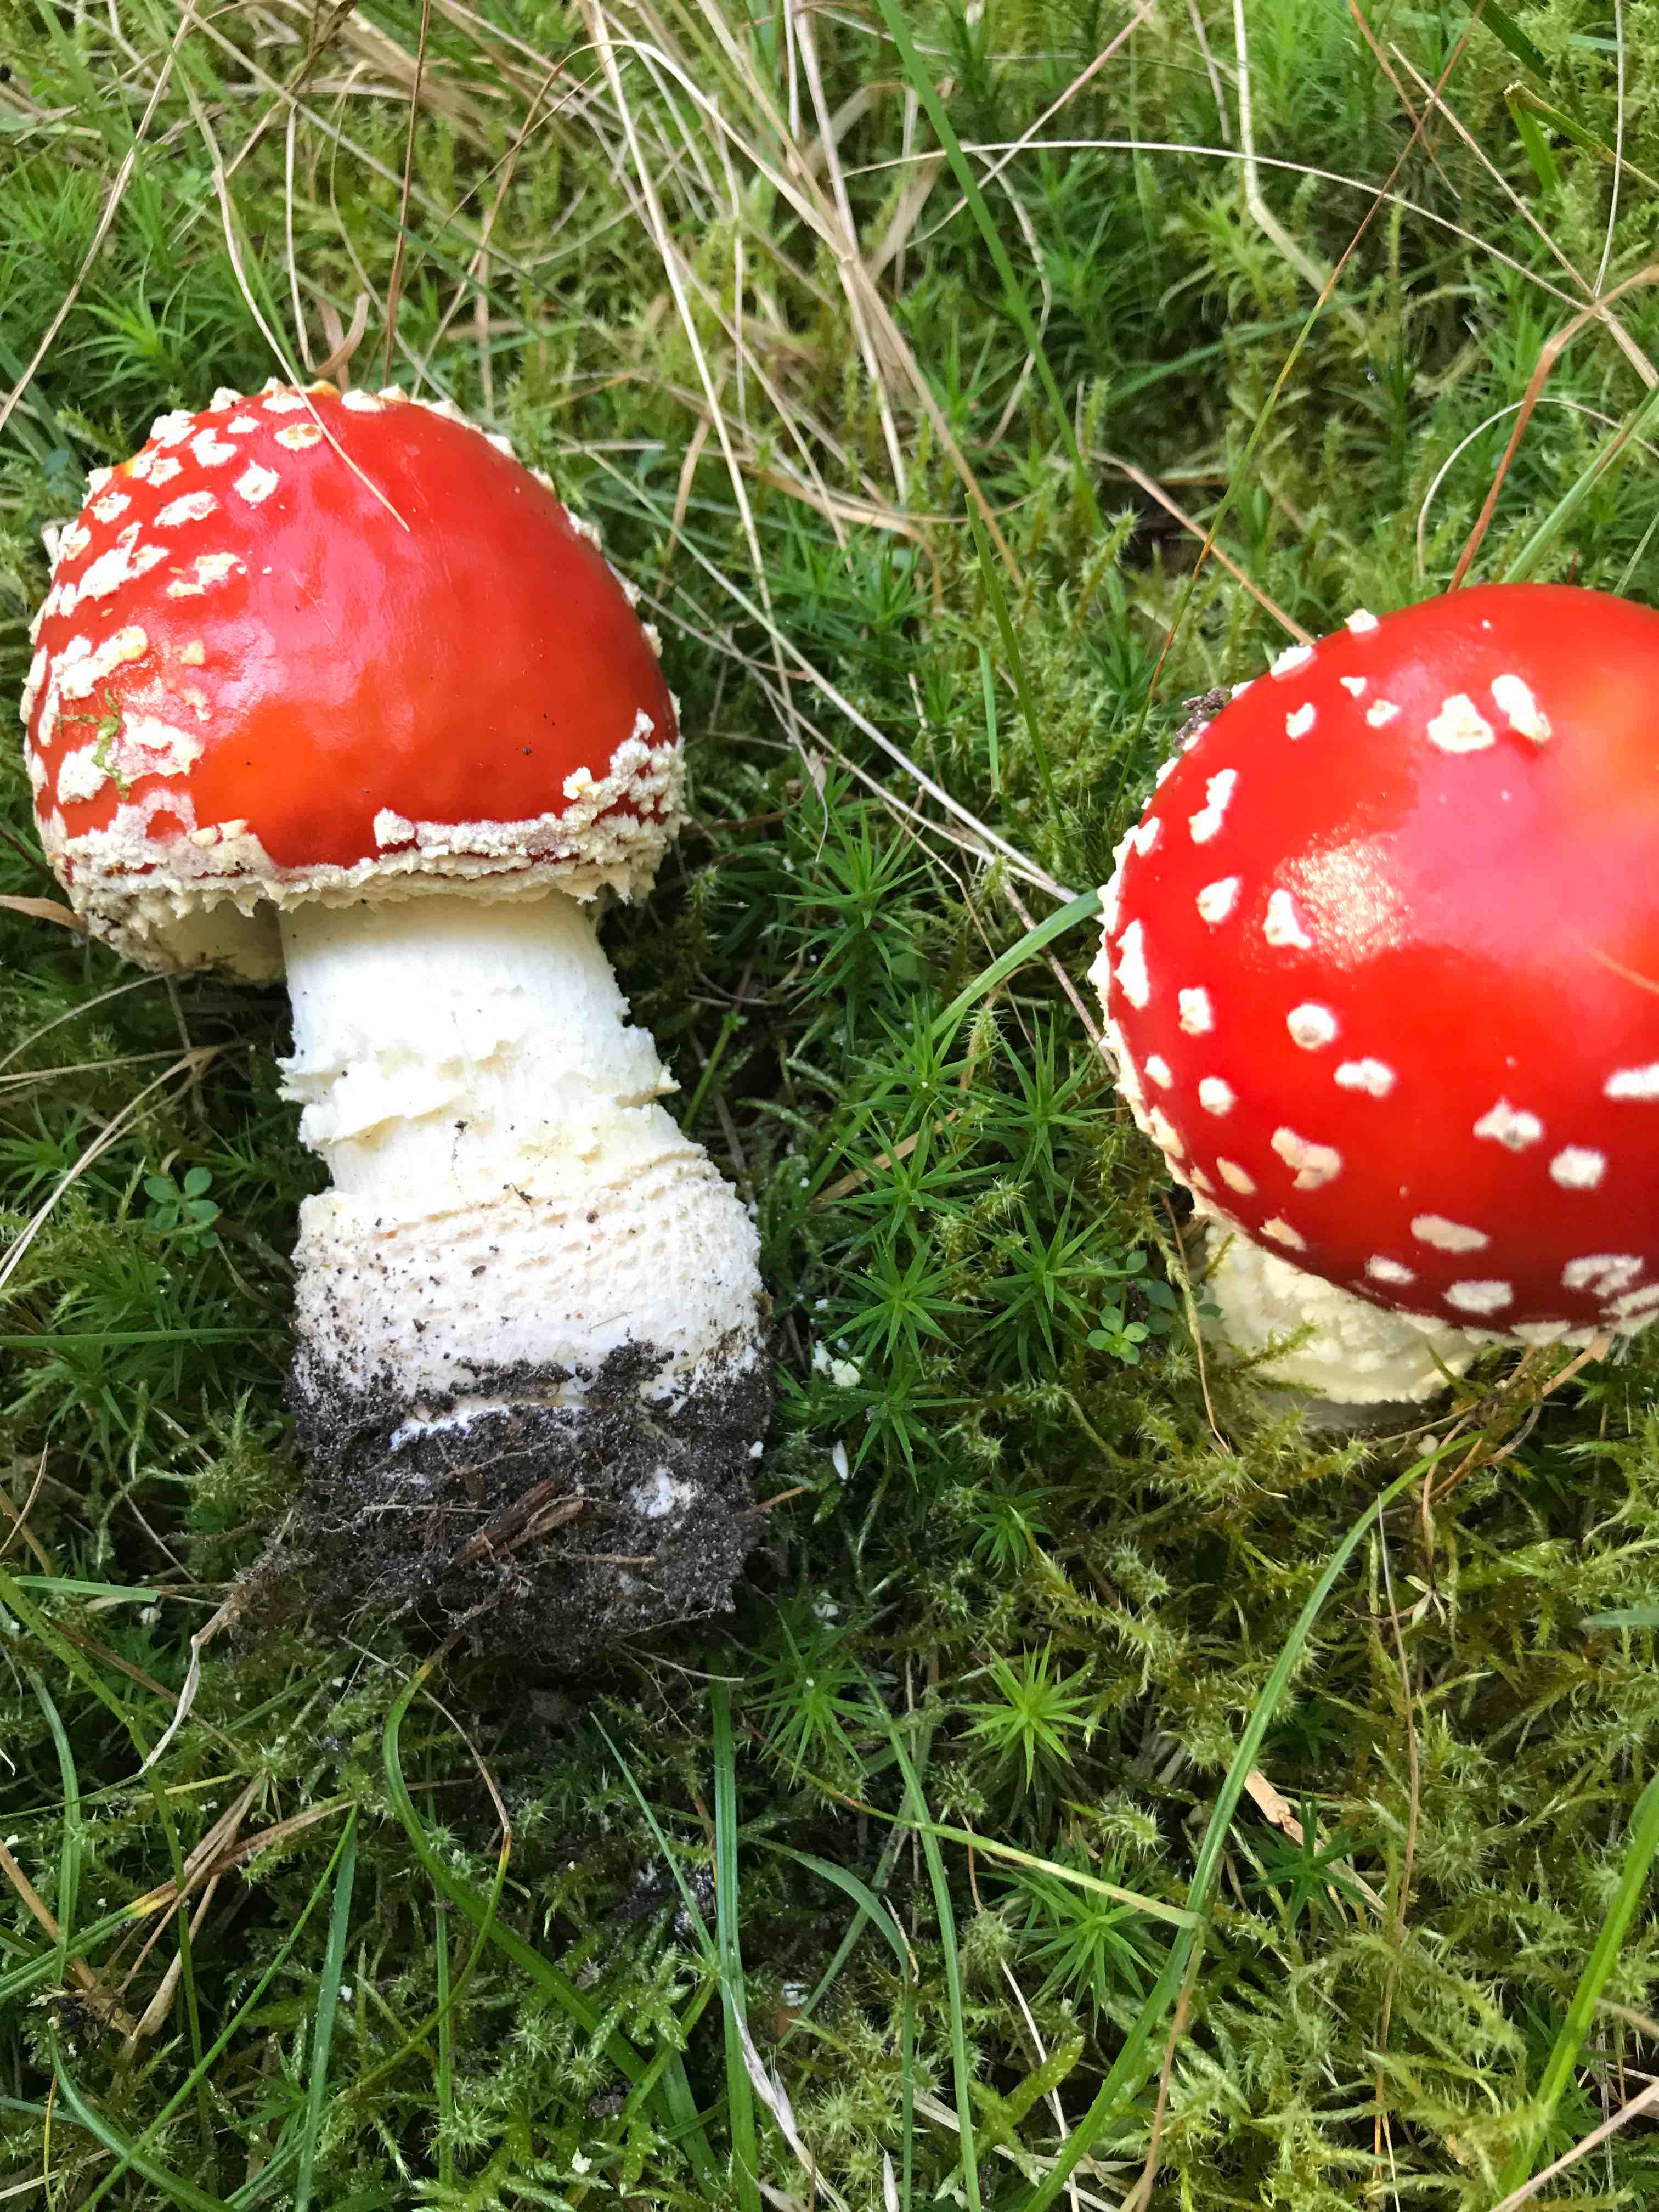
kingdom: Fungi
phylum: Basidiomycota
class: Agaricomycetes
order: Agaricales
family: Amanitaceae
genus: Amanita
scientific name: Amanita muscaria
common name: rød fluesvamp
